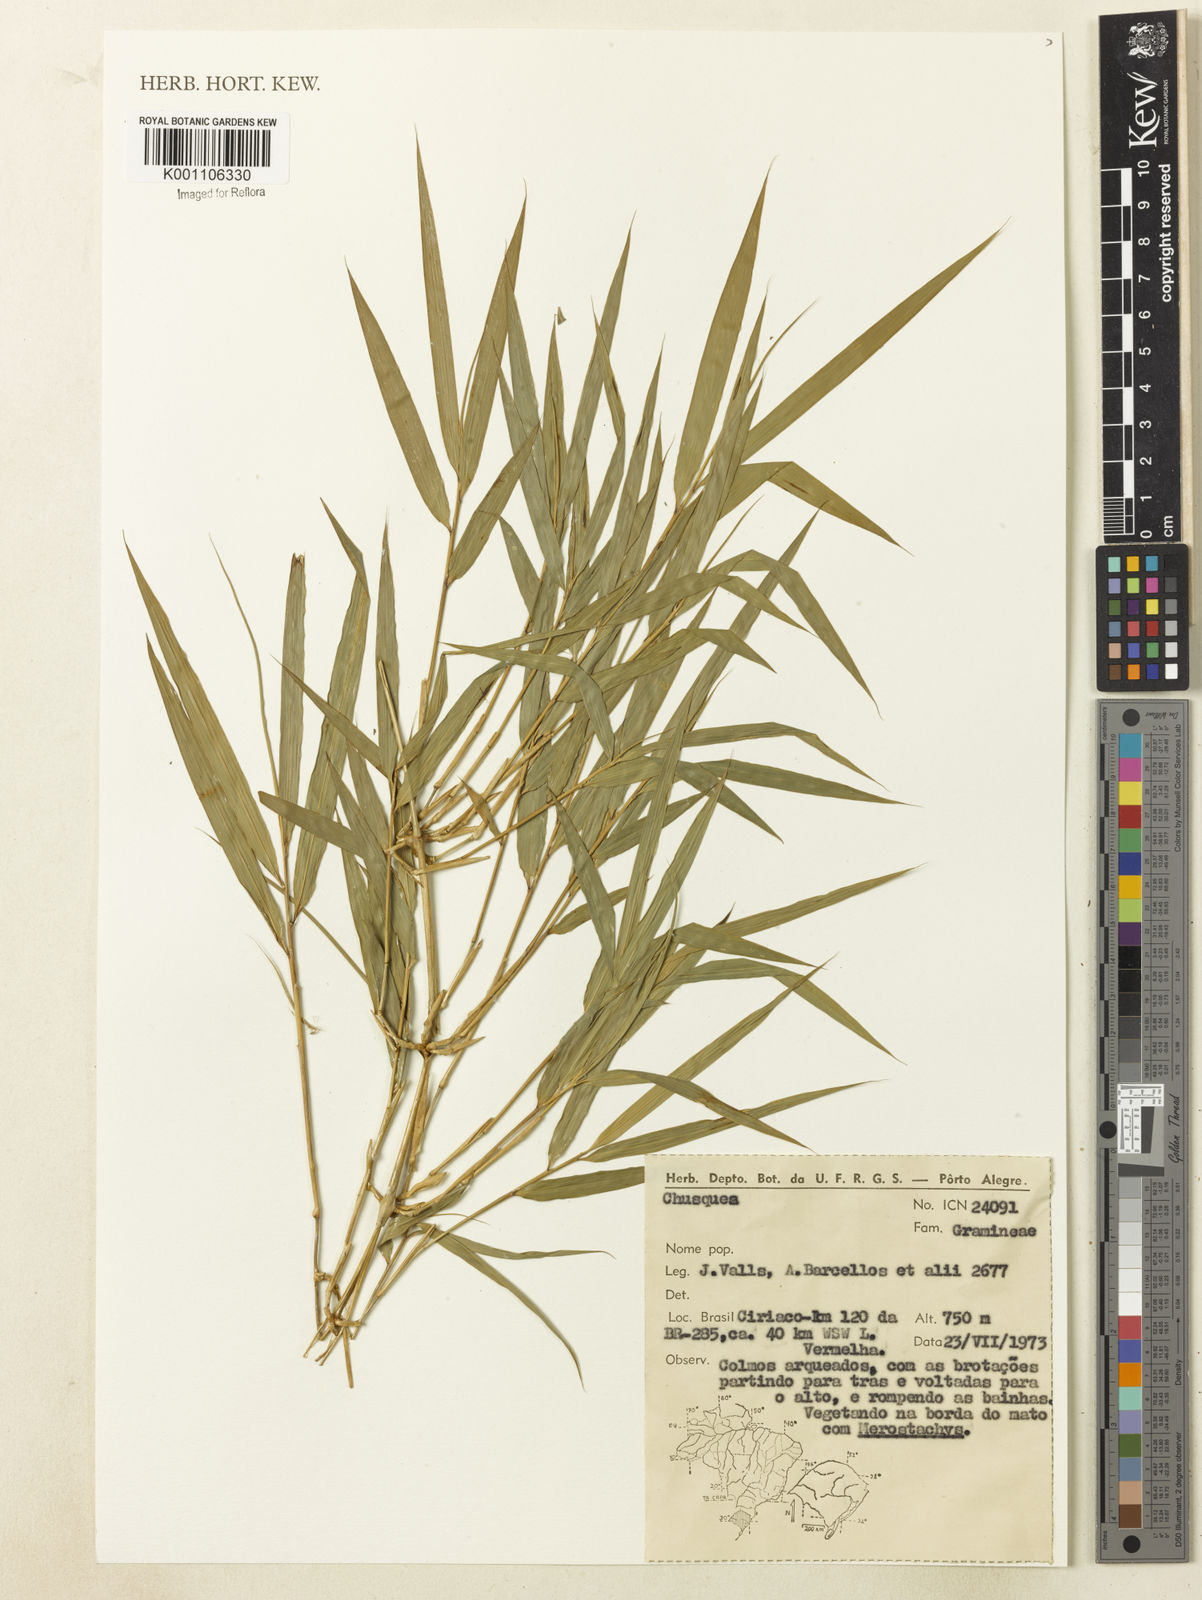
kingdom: Plantae
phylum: Tracheophyta
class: Liliopsida
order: Poales
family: Poaceae
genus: Chusquea
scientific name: Chusquea
